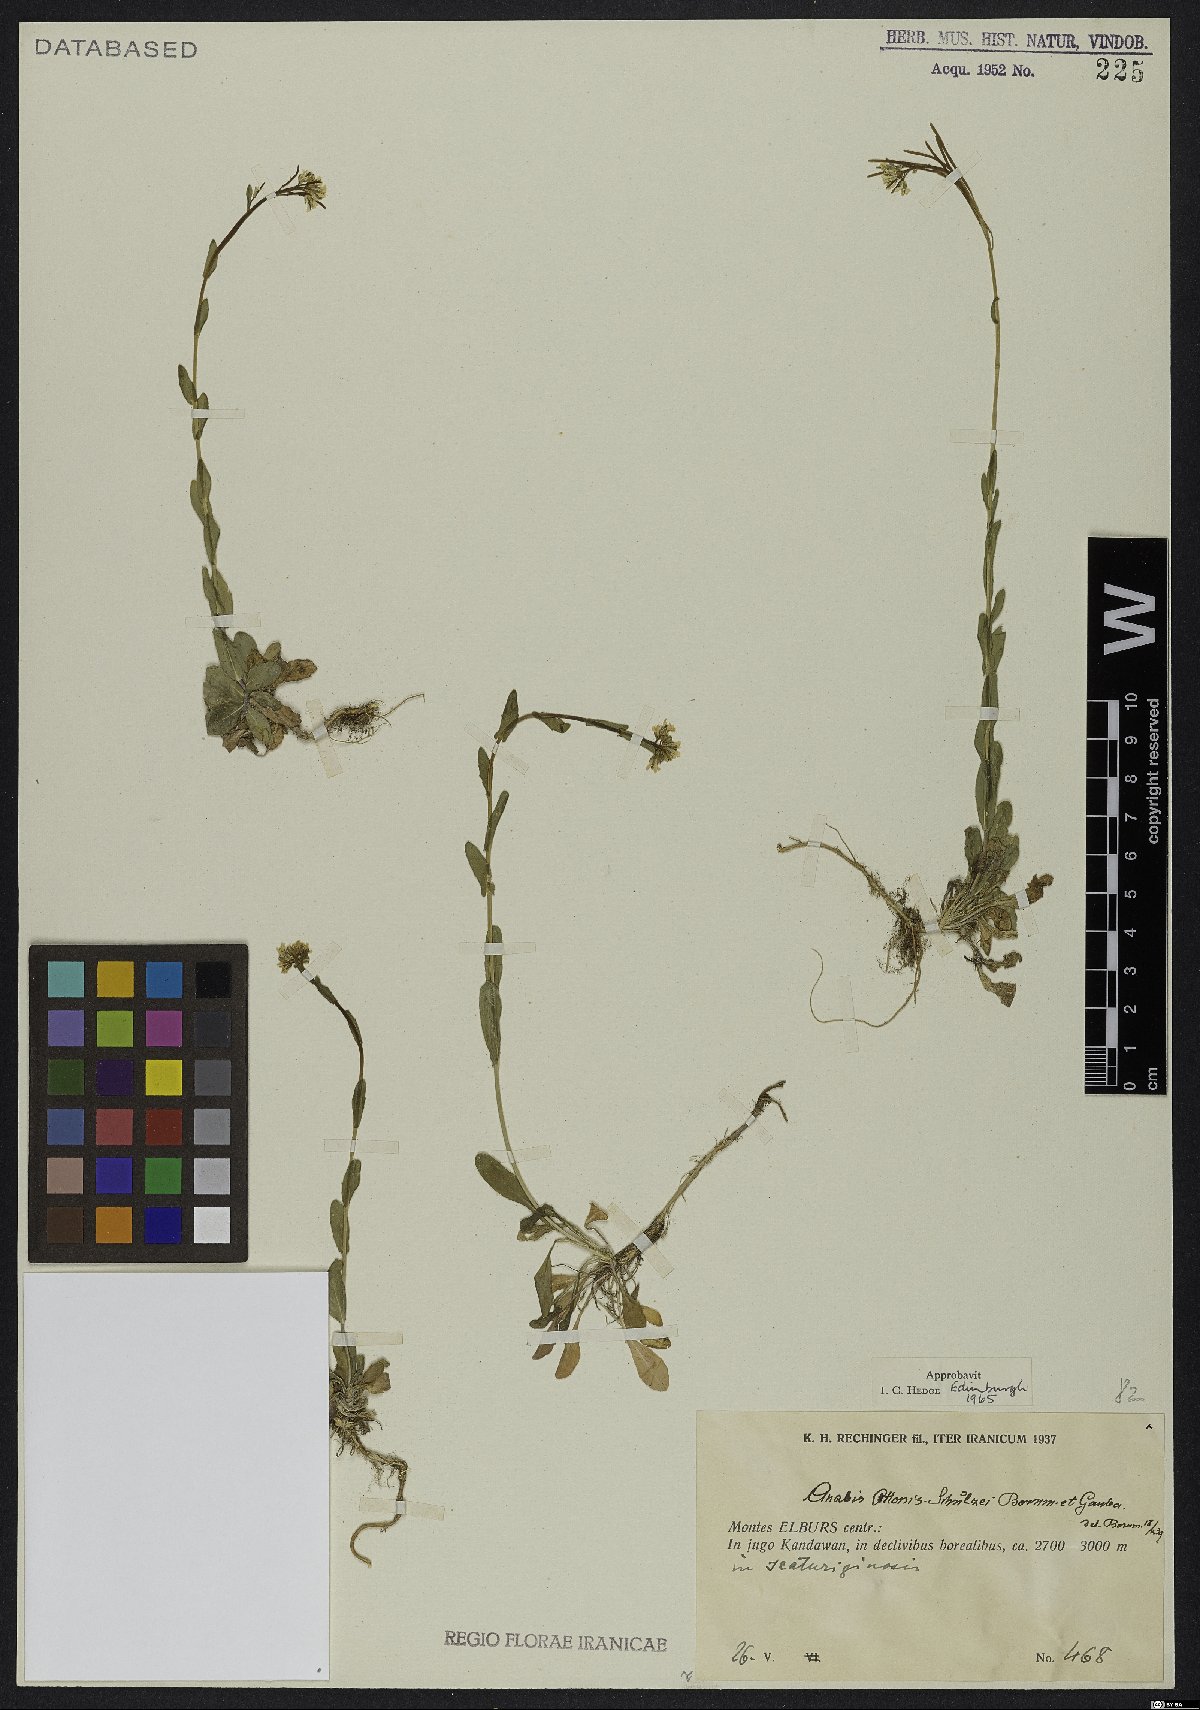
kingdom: Plantae
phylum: Tracheophyta
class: Magnoliopsida
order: Brassicales
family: Brassicaceae
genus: Arabis
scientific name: Arabis ottonis-schulzii
